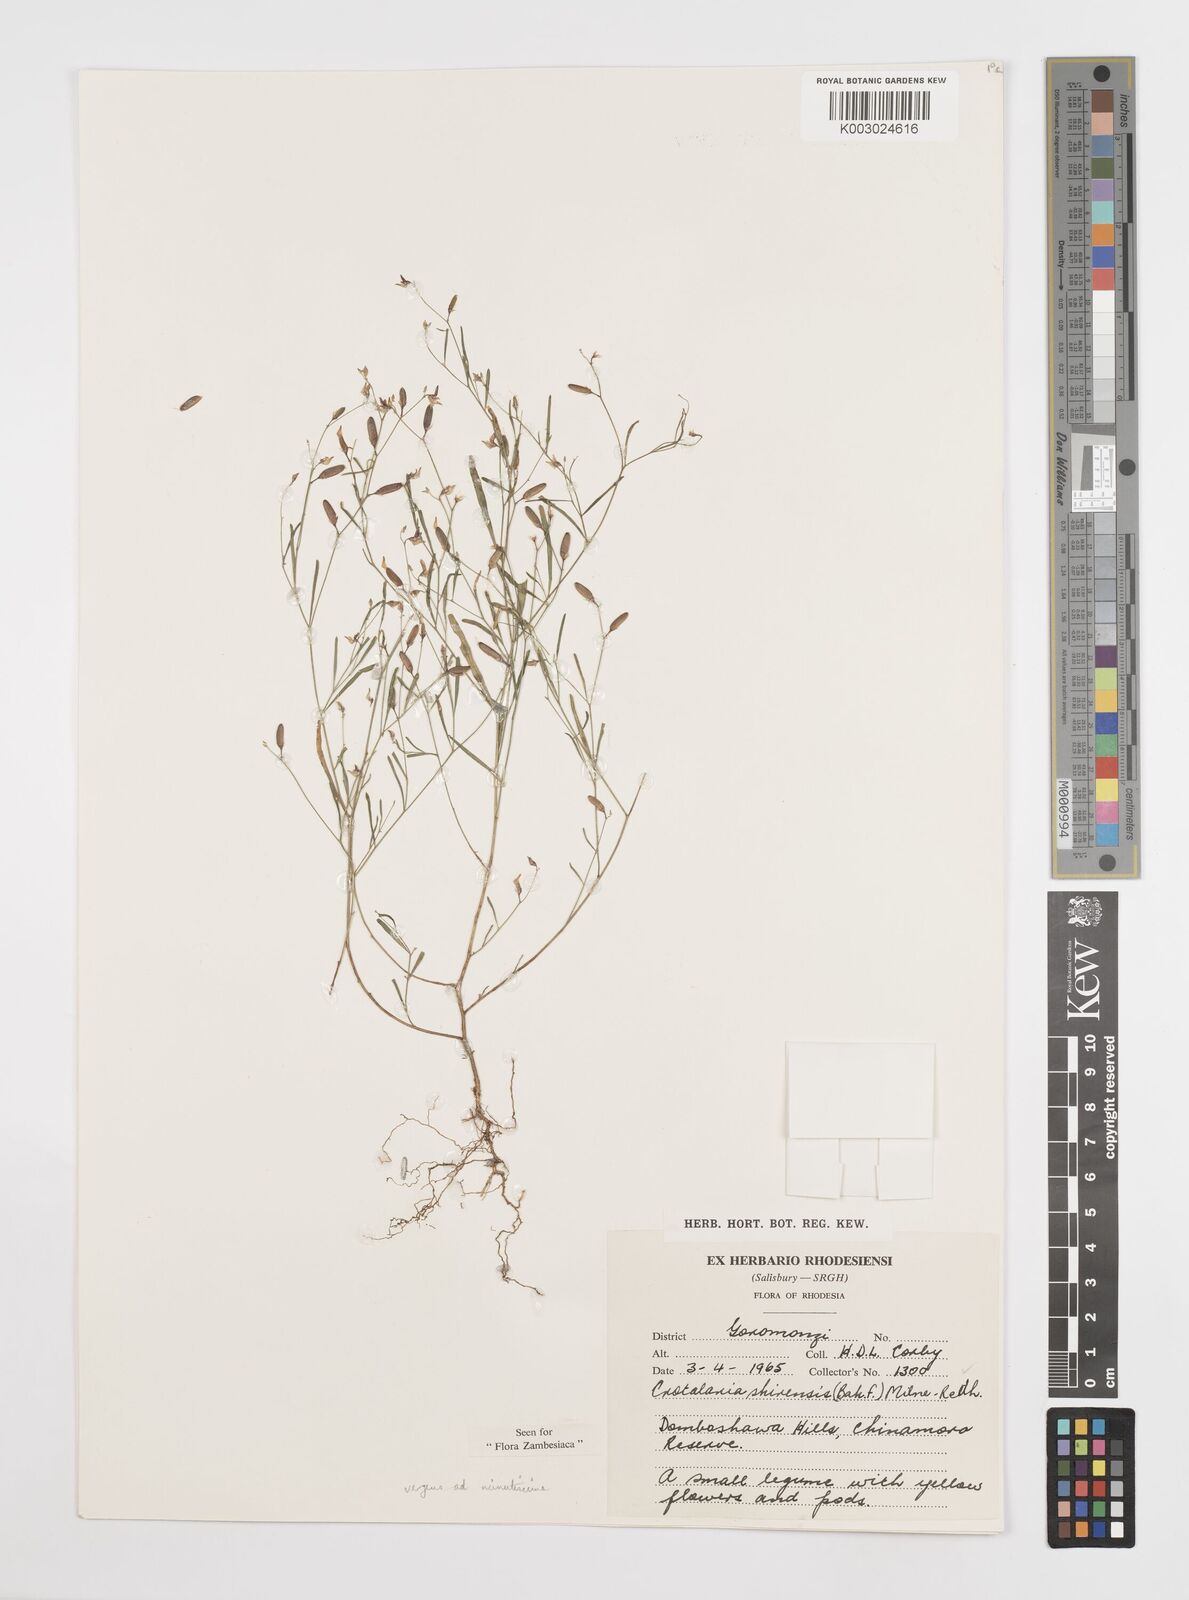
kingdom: Plantae
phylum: Tracheophyta
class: Magnoliopsida
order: Fabales
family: Fabaceae
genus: Crotalaria
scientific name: Crotalaria shirensis
